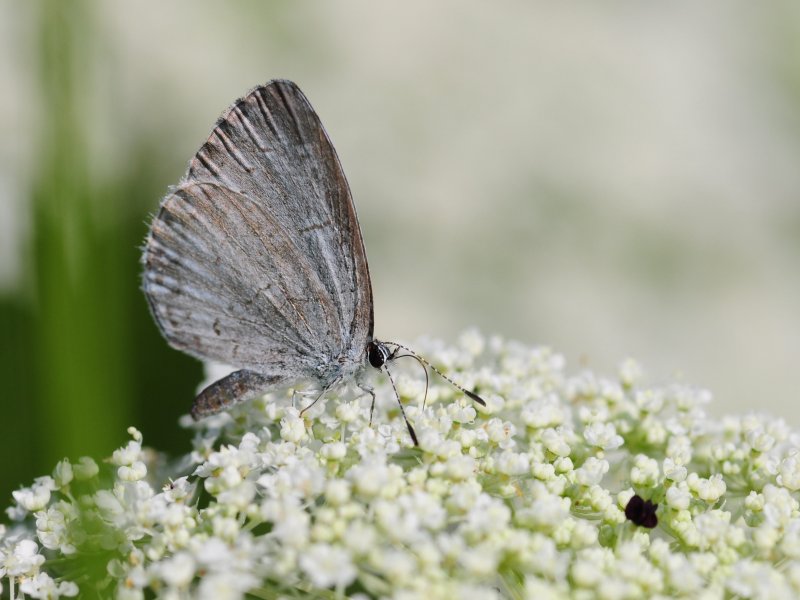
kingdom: Animalia
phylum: Arthropoda
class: Insecta
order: Lepidoptera
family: Lycaenidae
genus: Cyaniris
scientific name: Cyaniris neglecta
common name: Summer Azure
